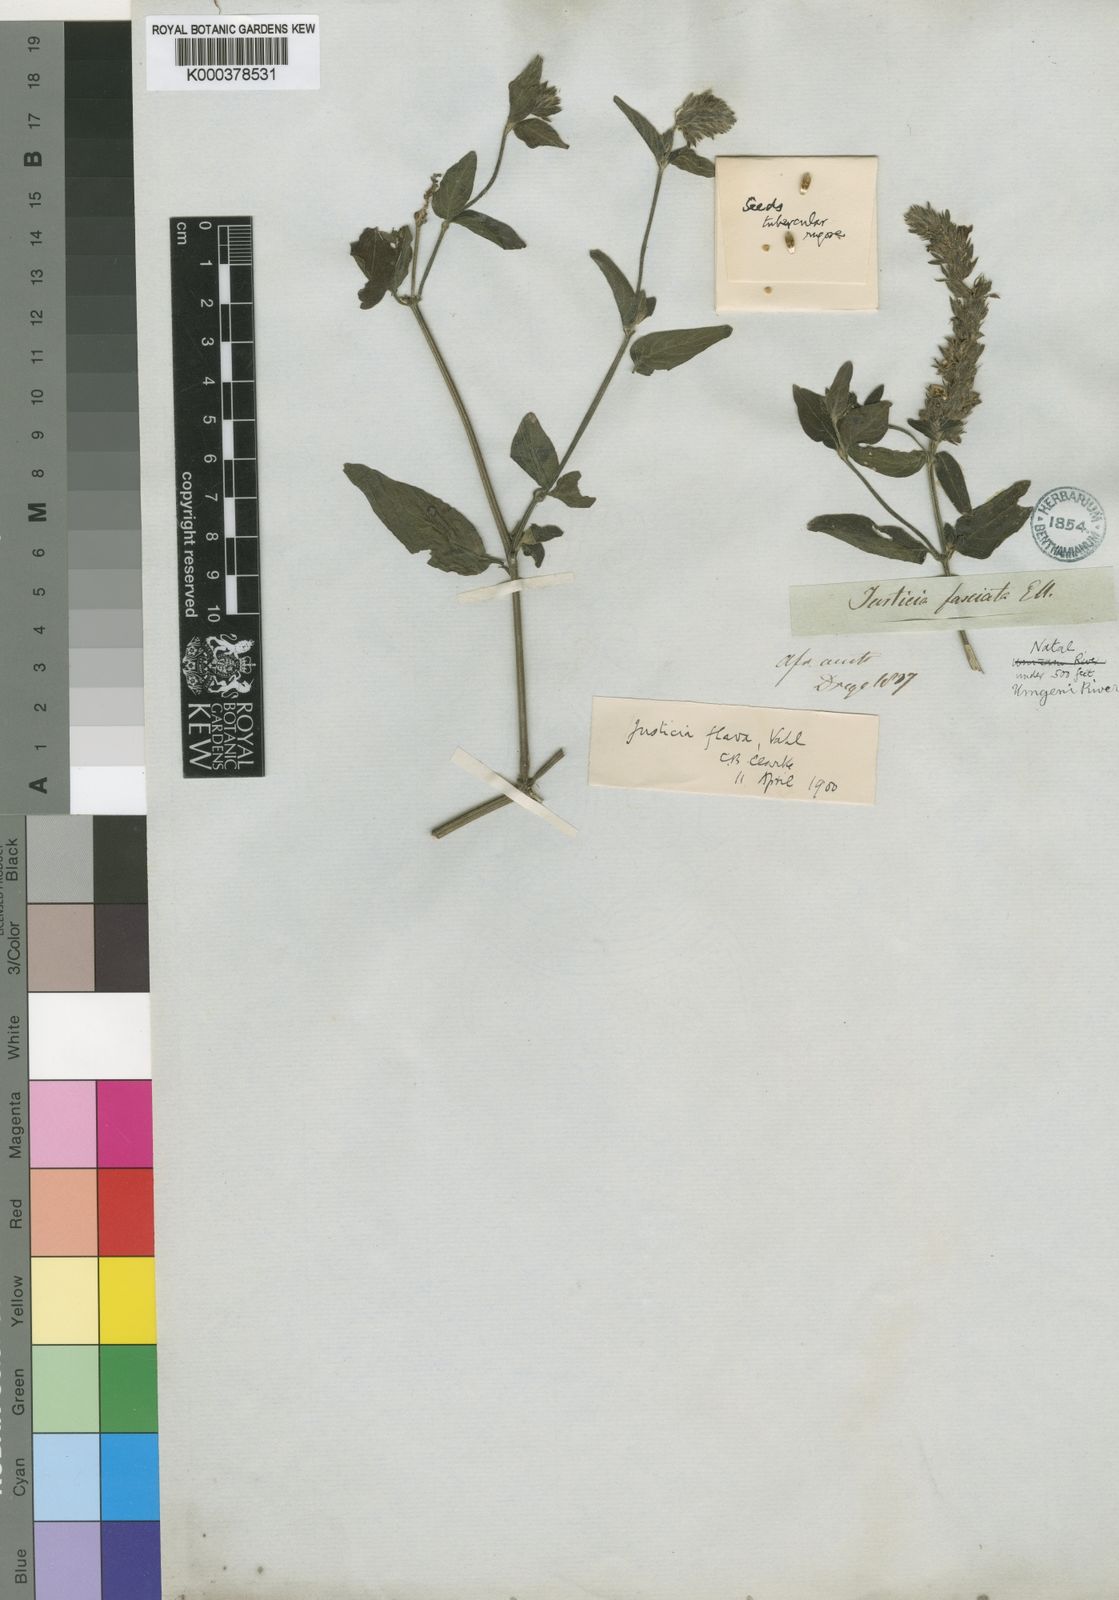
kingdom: Plantae
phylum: Tracheophyta
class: Magnoliopsida
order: Lamiales
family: Acanthaceae
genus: Justicia
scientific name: Justicia flava
